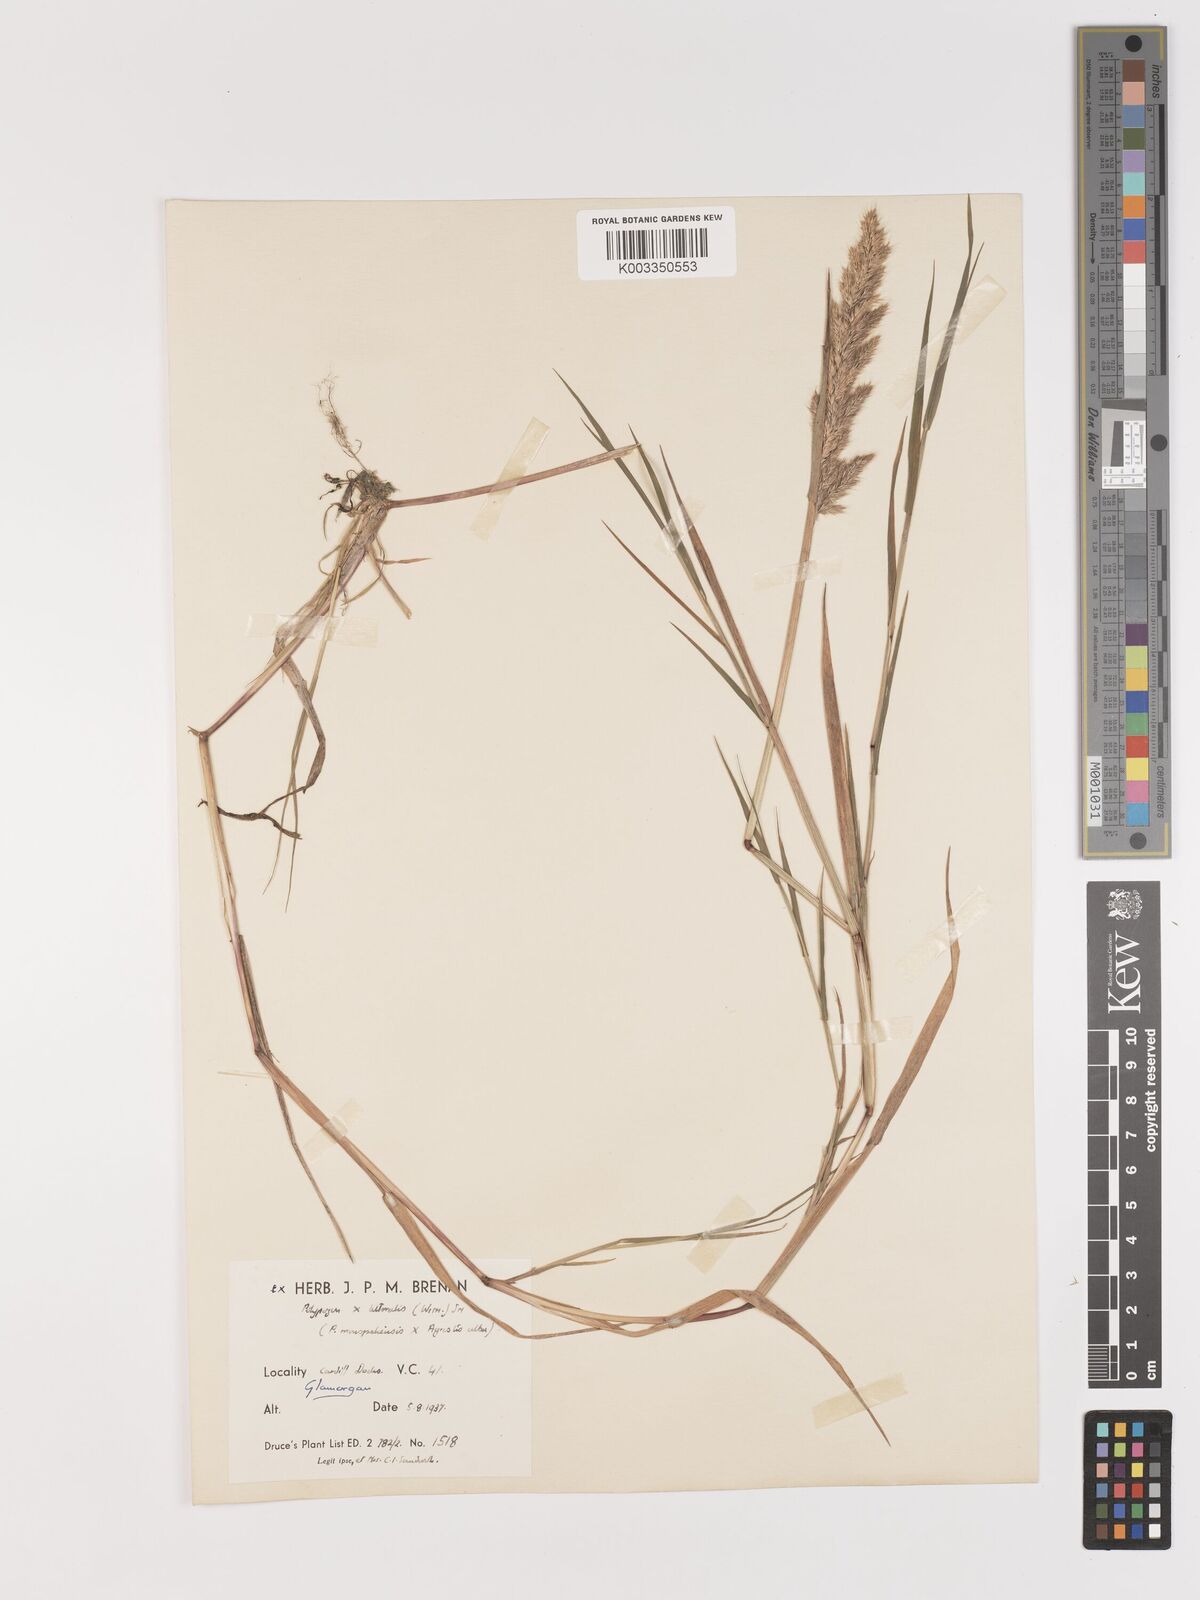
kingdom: Plantae
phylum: Tracheophyta
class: Liliopsida
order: Poales
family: Poaceae
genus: Agropogon
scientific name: Agropogon lutosus
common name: Coast agropogon
